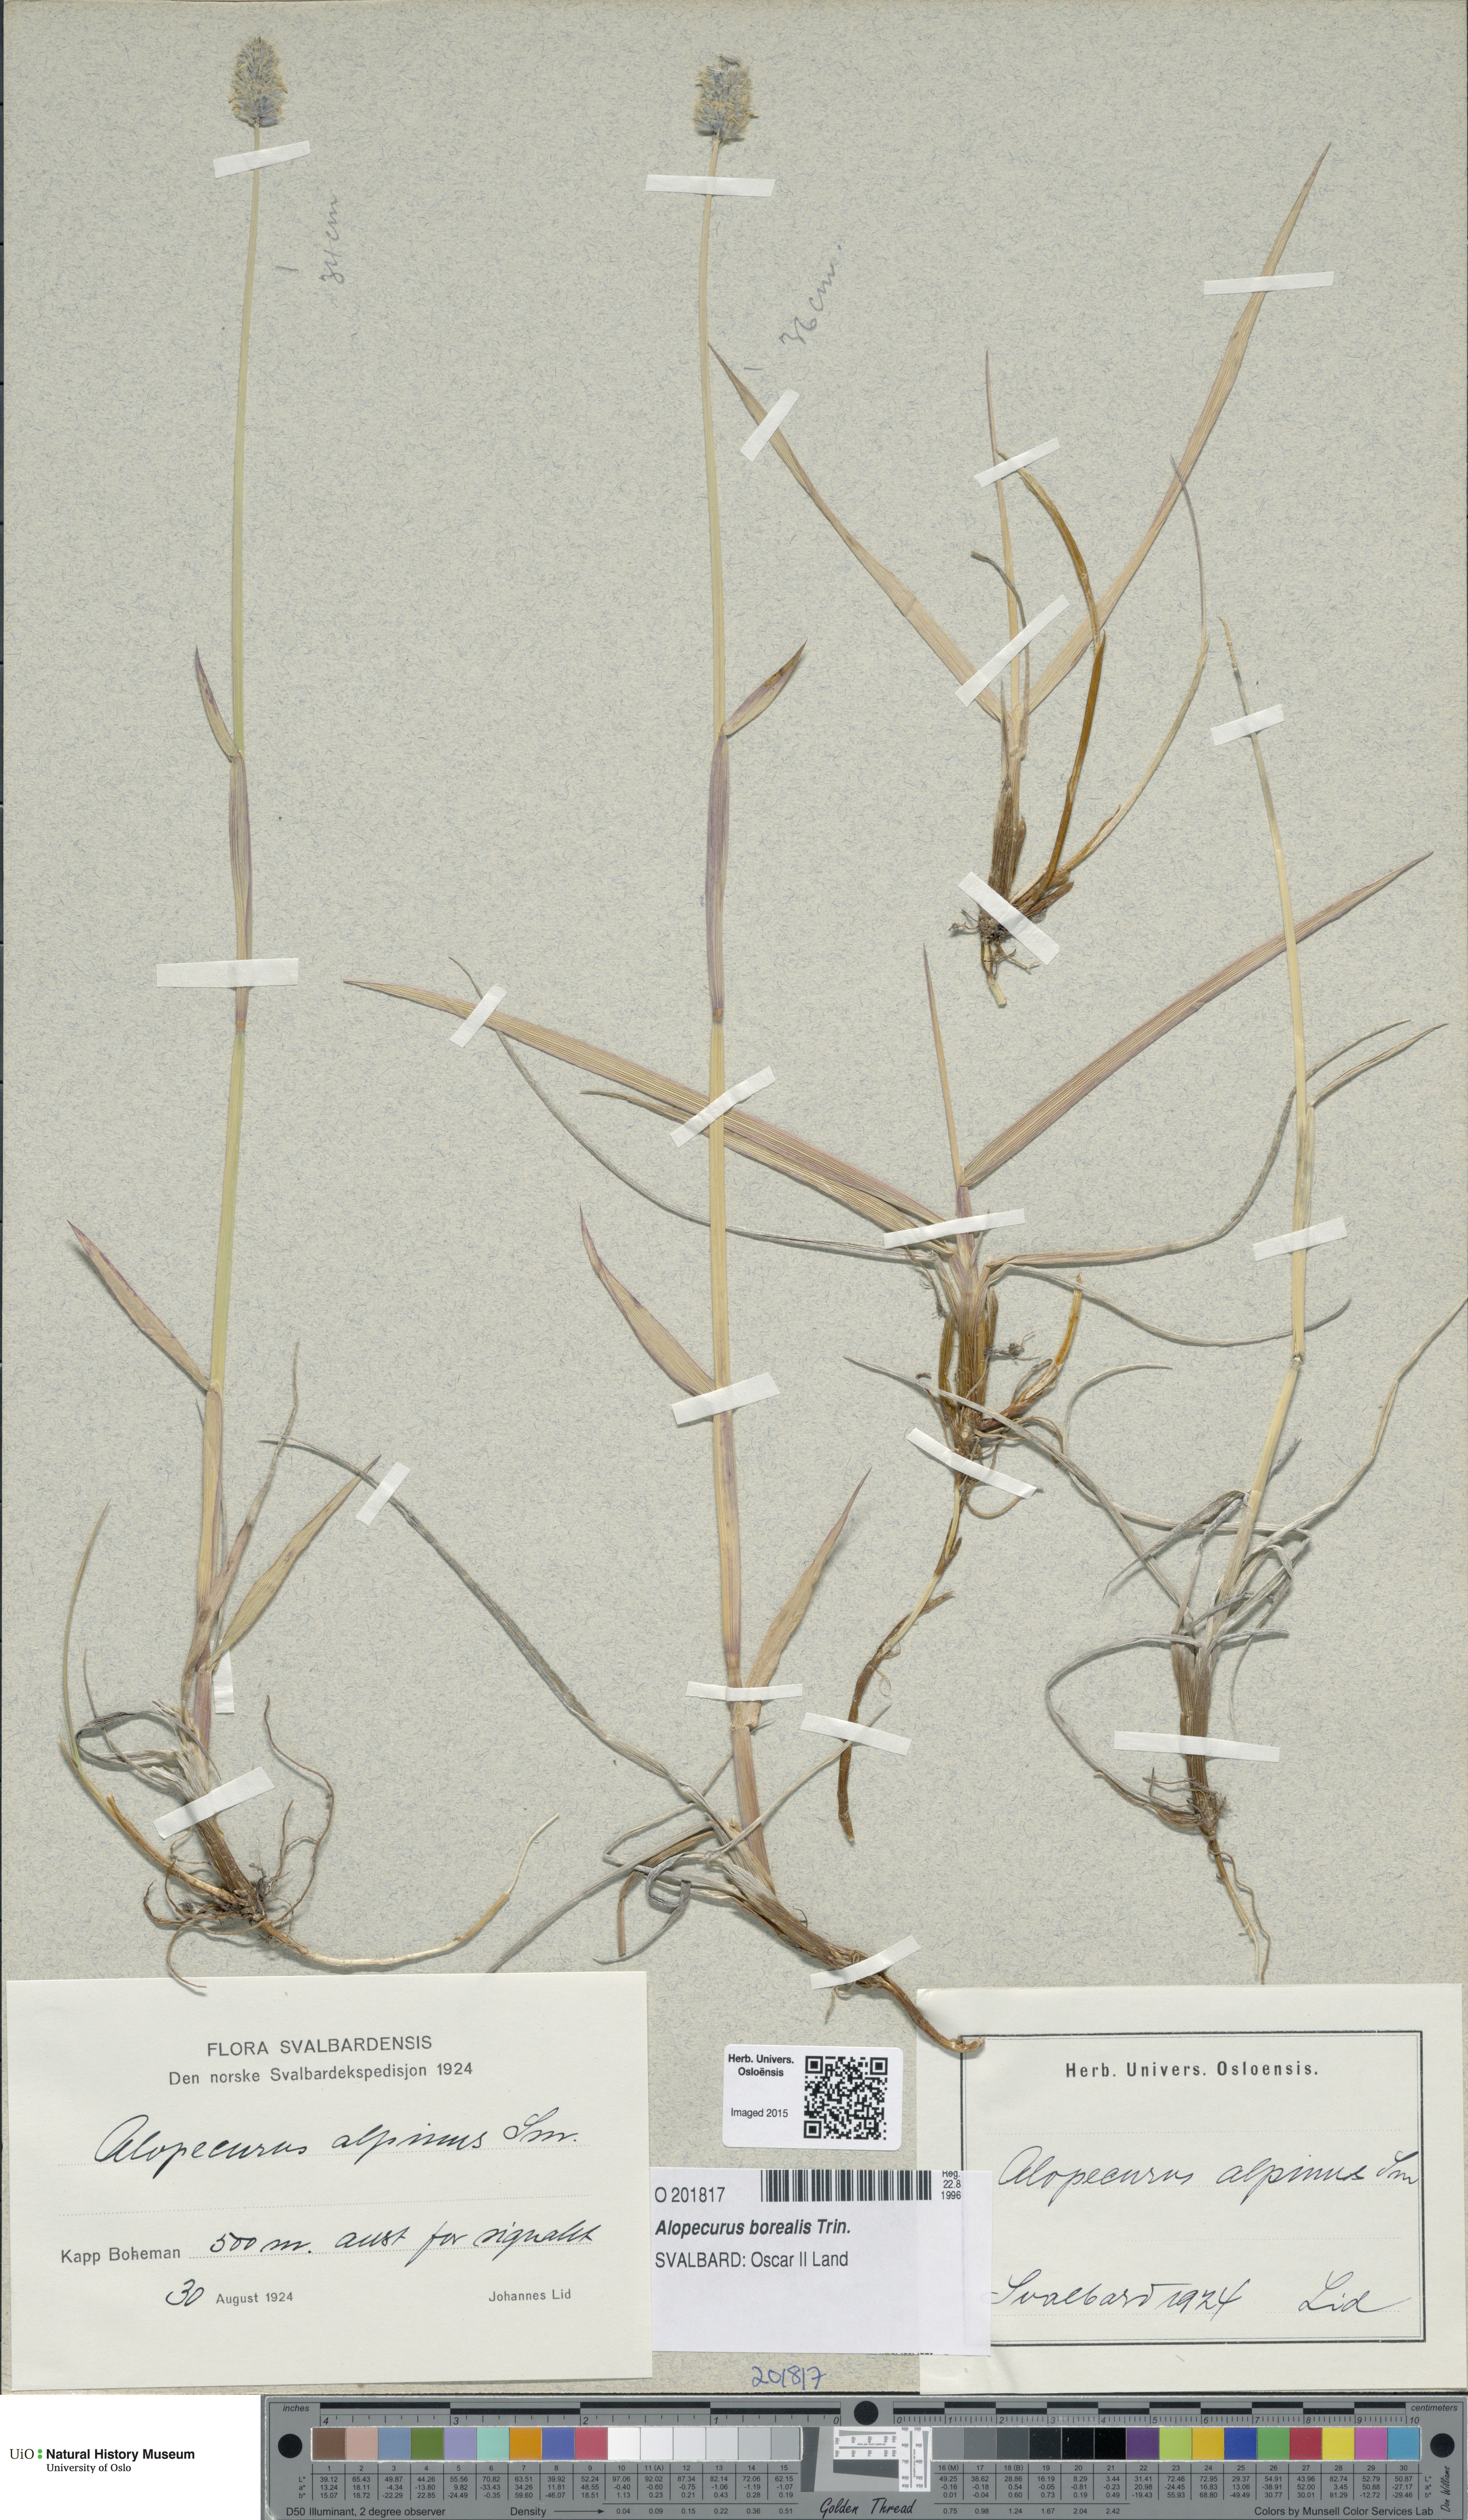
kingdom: Plantae
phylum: Tracheophyta
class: Liliopsida
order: Poales
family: Poaceae
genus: Alopecurus
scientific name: Alopecurus magellanicus
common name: Alpine foxtail
